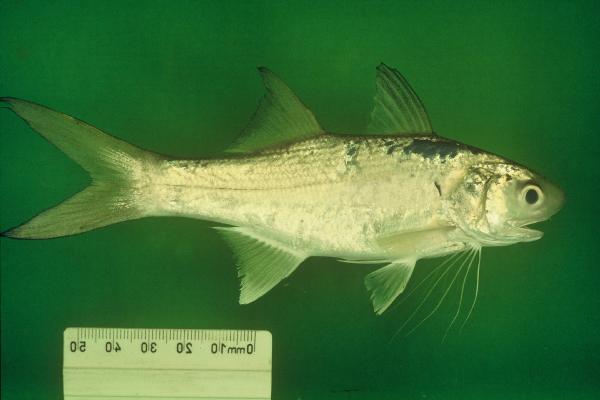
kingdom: Animalia
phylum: Chordata
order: Perciformes
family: Polynemidae
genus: Polydactylus
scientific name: Polydactylus sextarius
